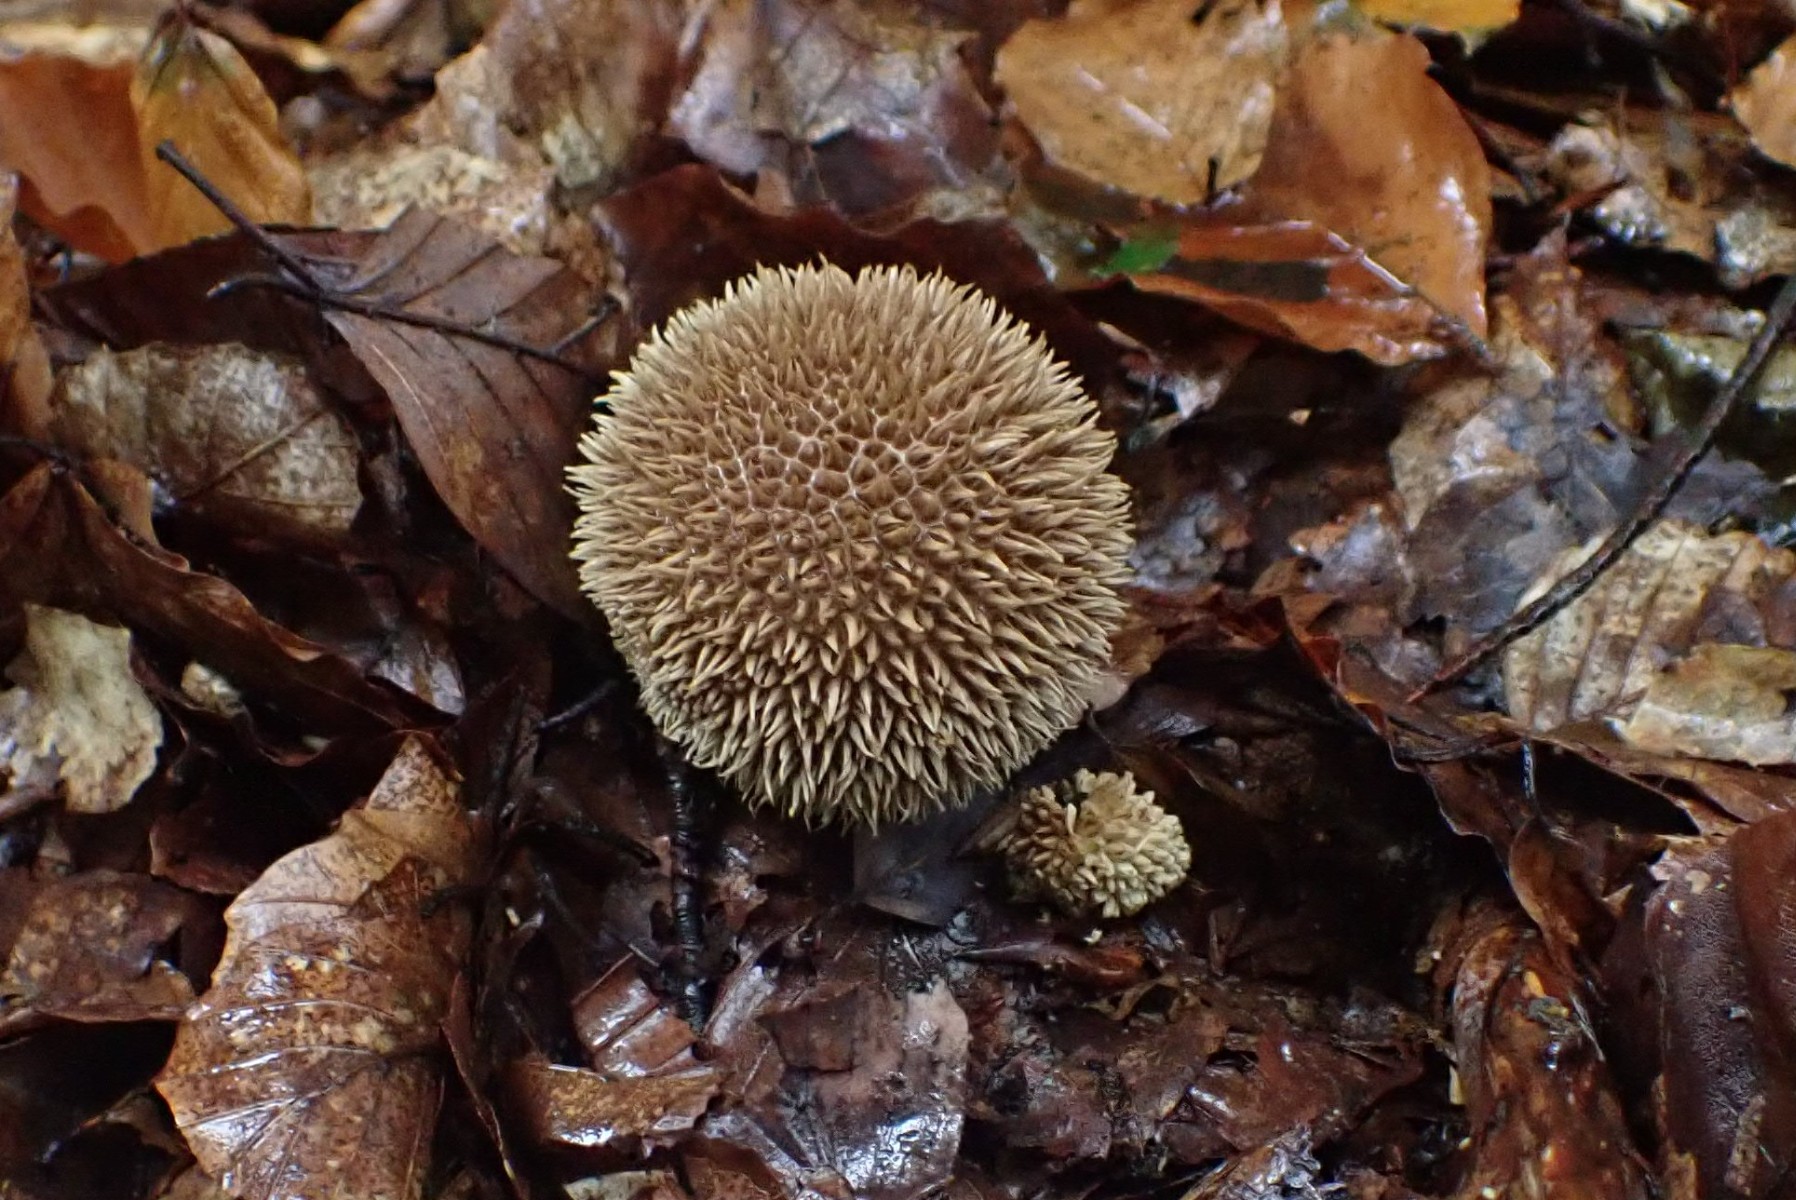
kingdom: Fungi
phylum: Basidiomycota
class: Agaricomycetes
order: Agaricales
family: Lycoperdaceae
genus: Lycoperdon
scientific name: Lycoperdon echinatum
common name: pindsvine-støvbold
